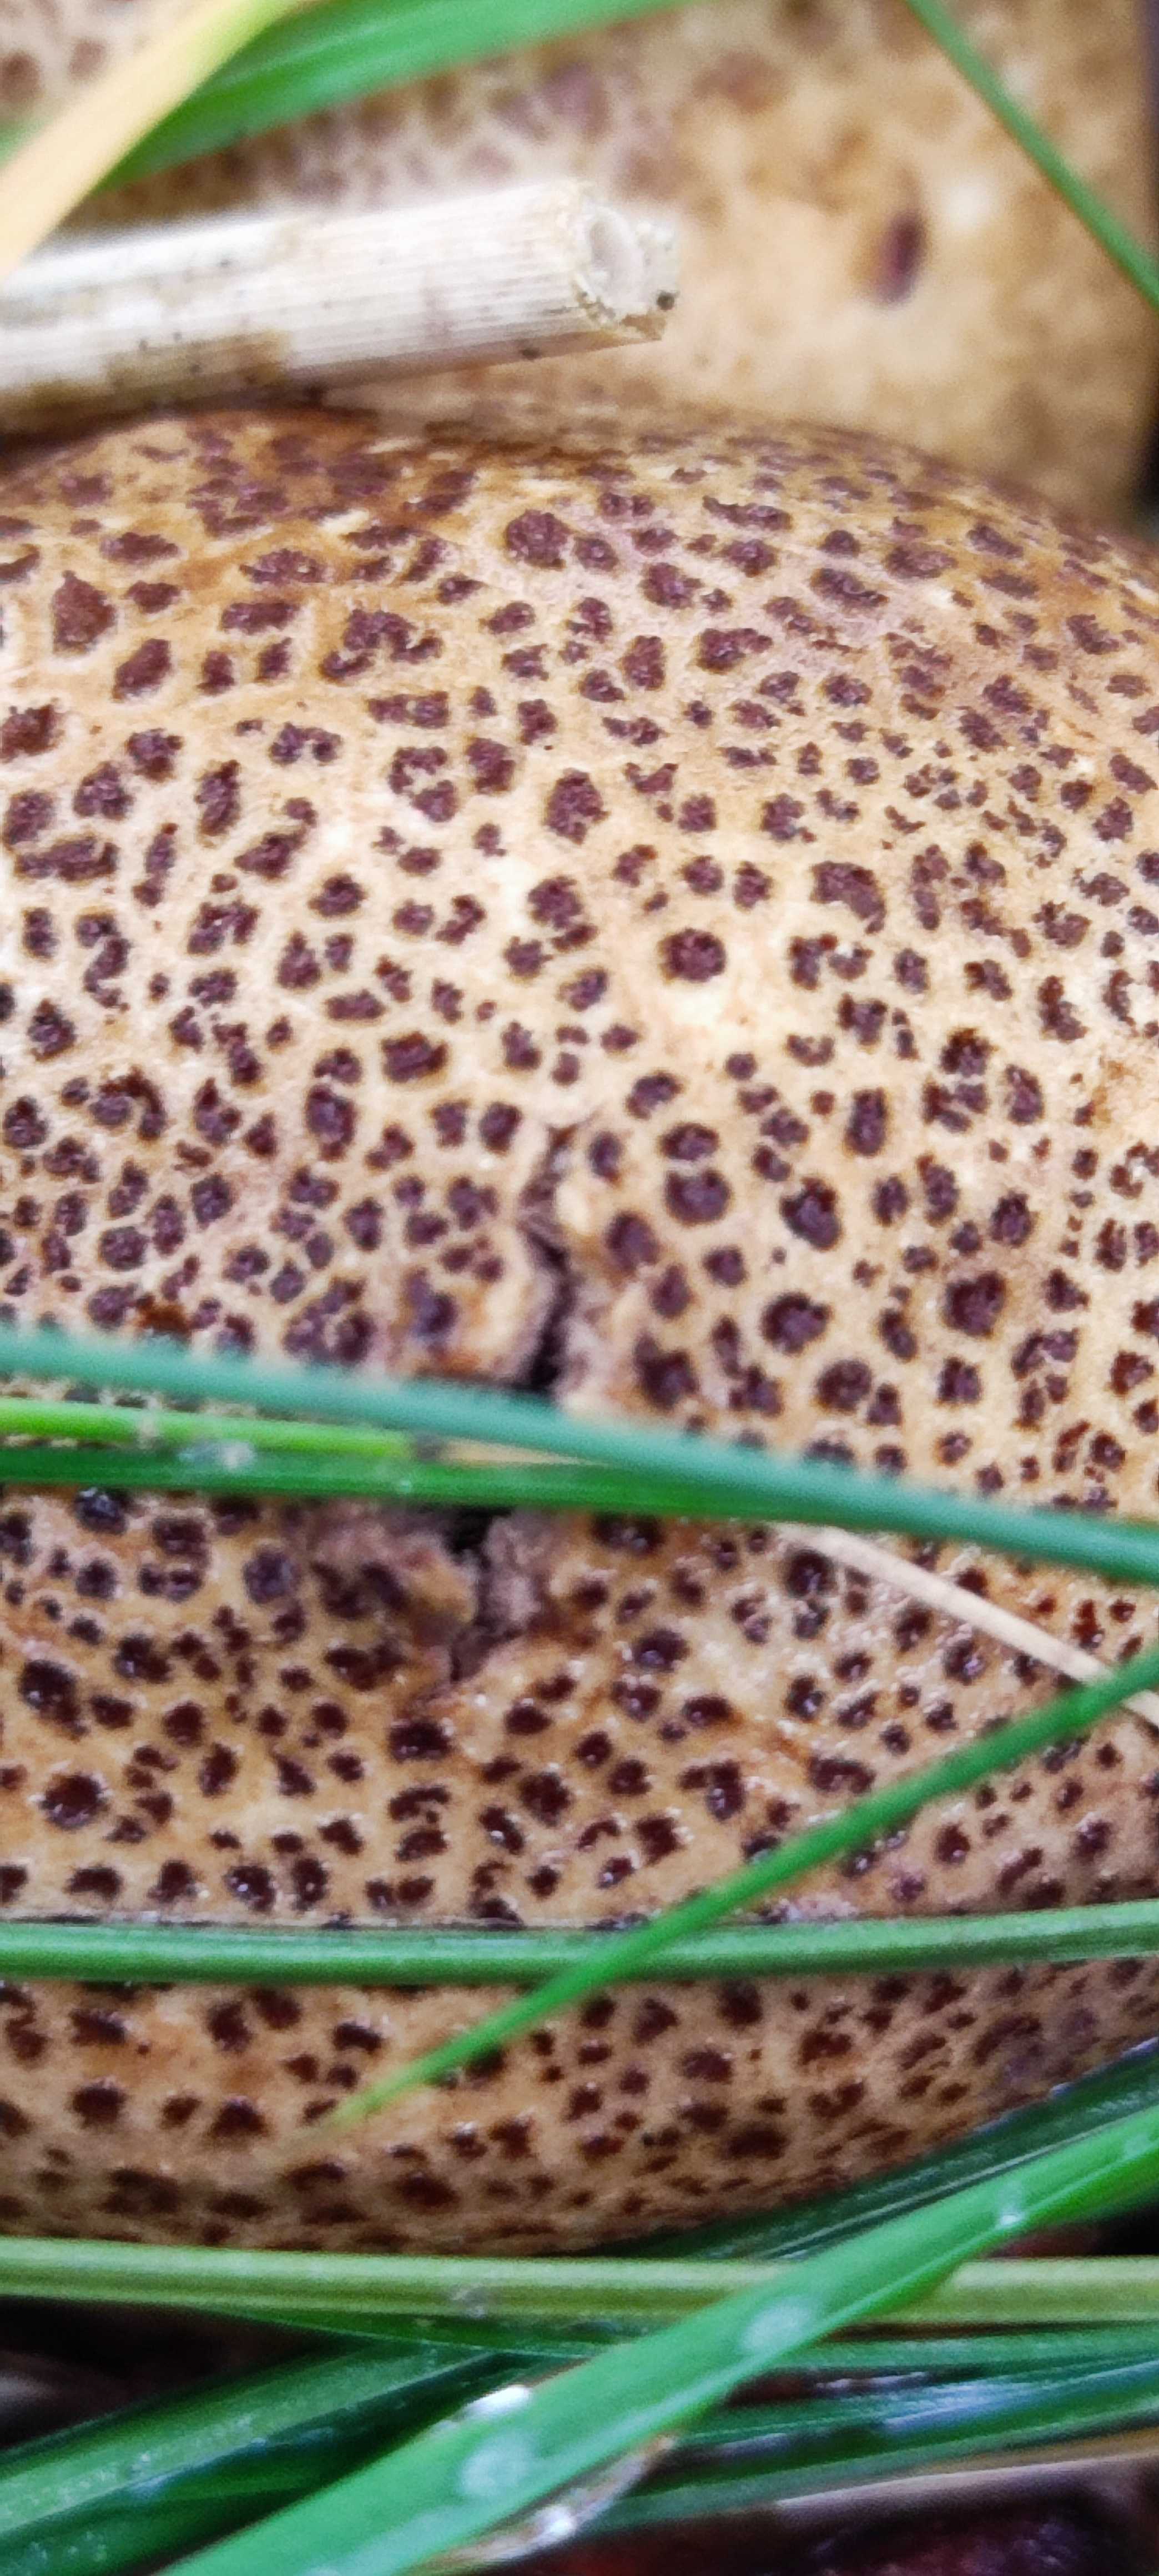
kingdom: Fungi
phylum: Basidiomycota
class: Agaricomycetes
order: Boletales
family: Sclerodermataceae
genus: Scleroderma
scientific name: Scleroderma
